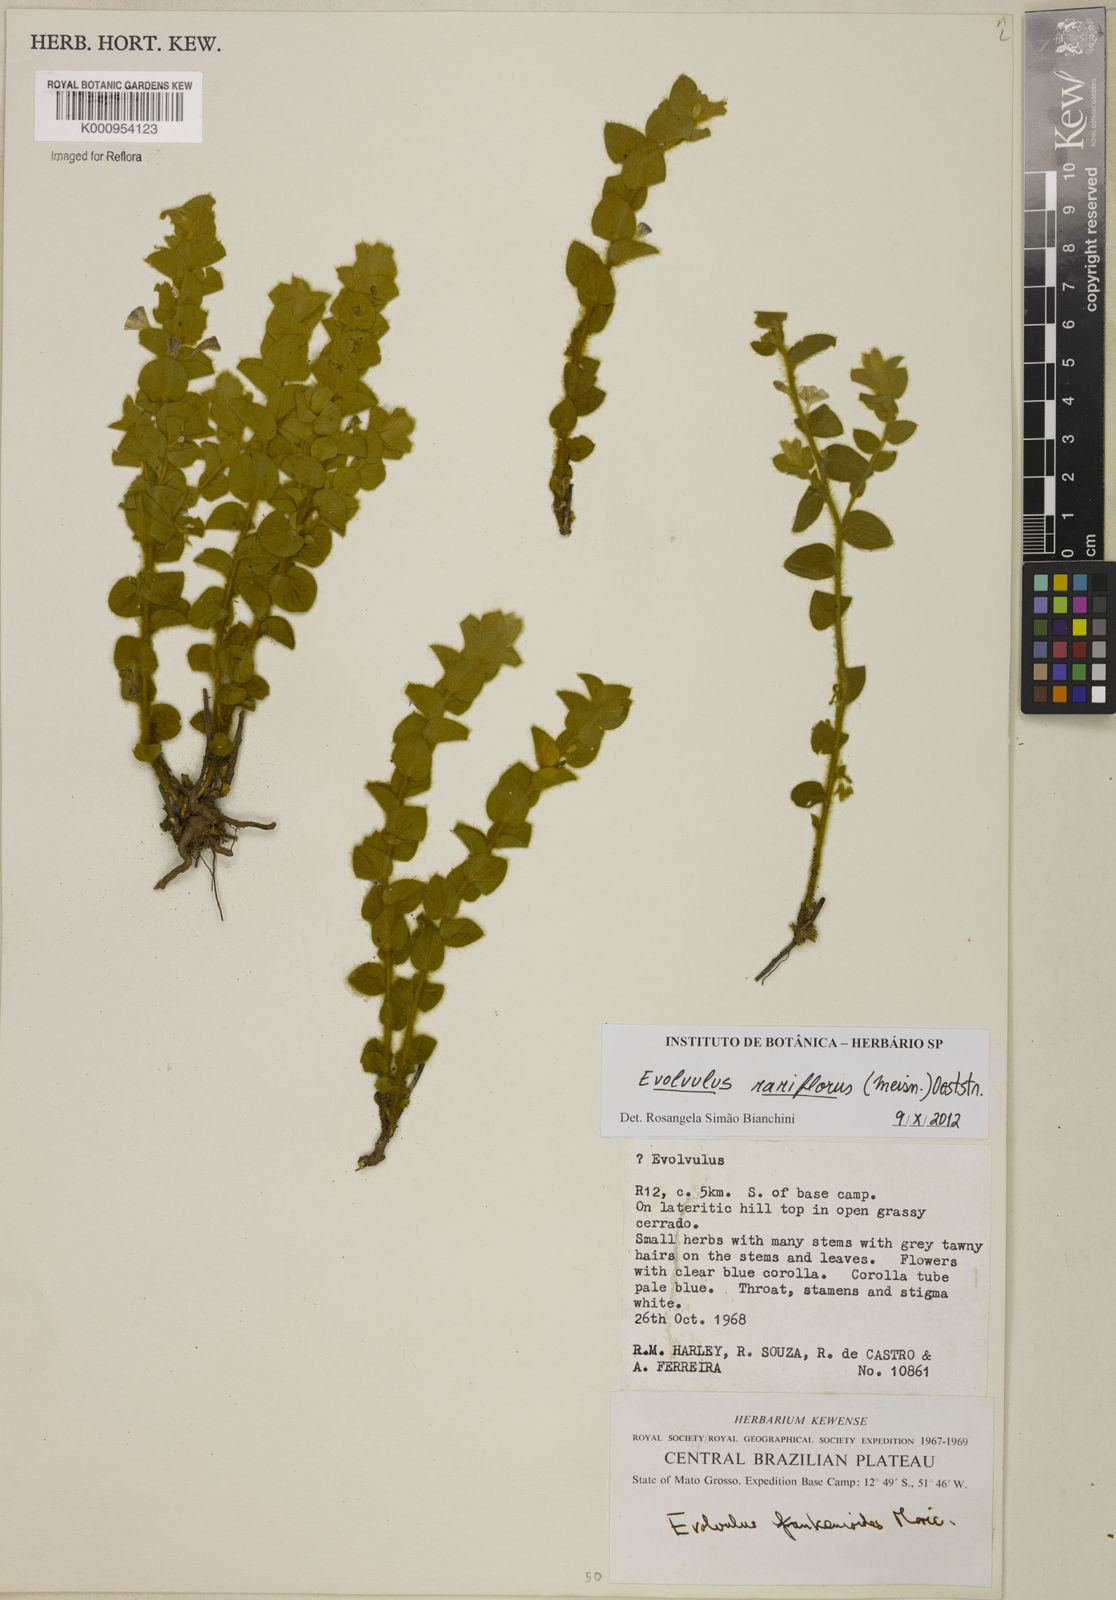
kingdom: Plantae
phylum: Tracheophyta
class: Magnoliopsida
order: Solanales
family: Convolvulaceae
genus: Evolvulus
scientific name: Evolvulus rariflorus
